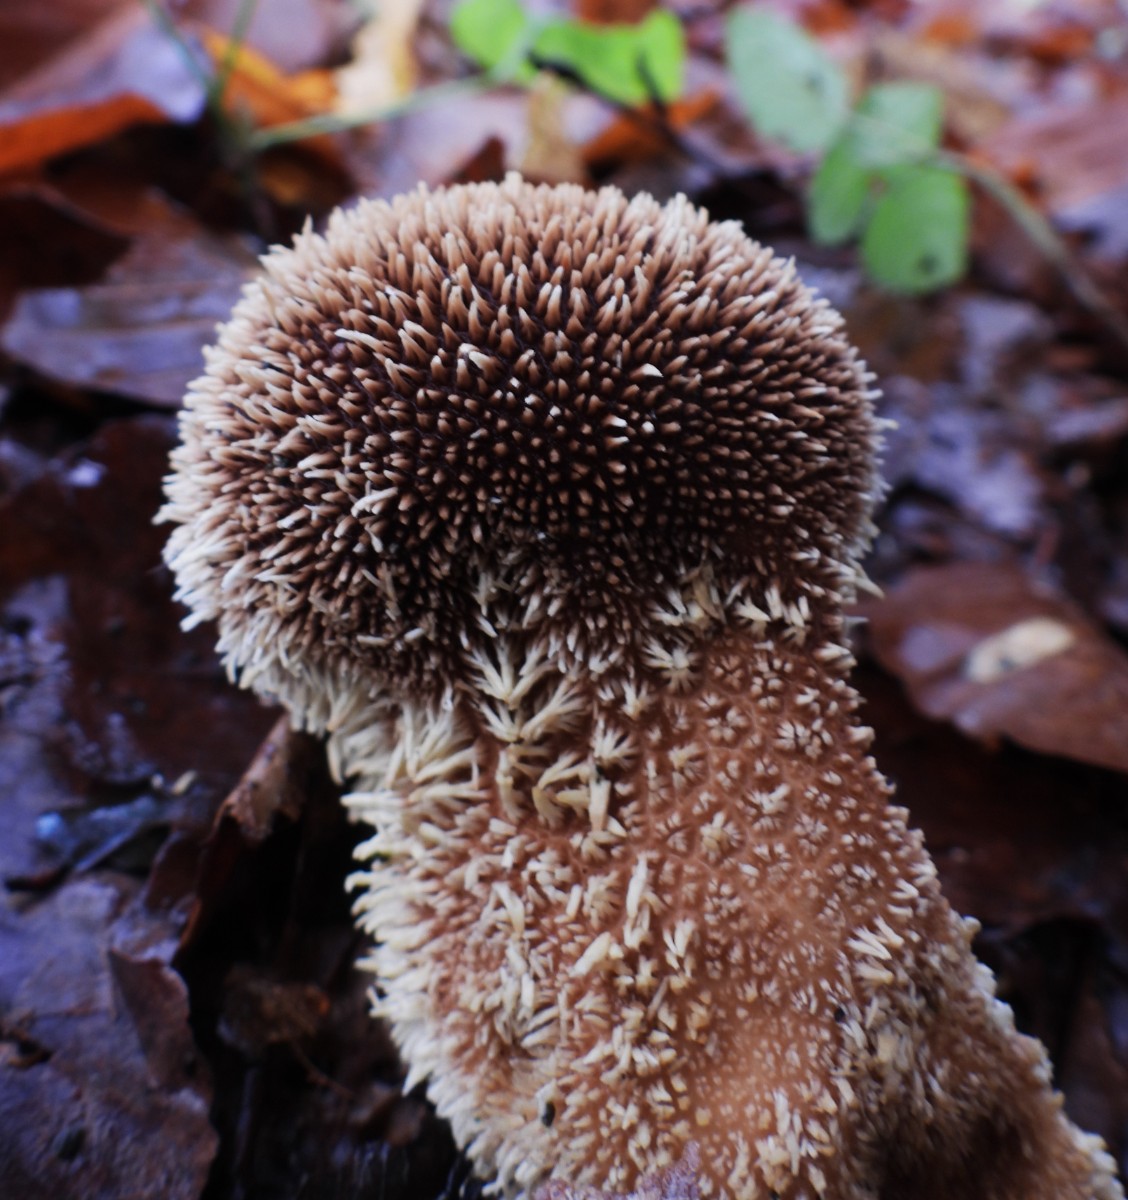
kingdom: Fungi
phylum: Basidiomycota
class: Agaricomycetes
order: Agaricales
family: Lycoperdaceae
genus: Lycoperdon
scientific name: Lycoperdon echinatum
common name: pindsvine-støvbold
